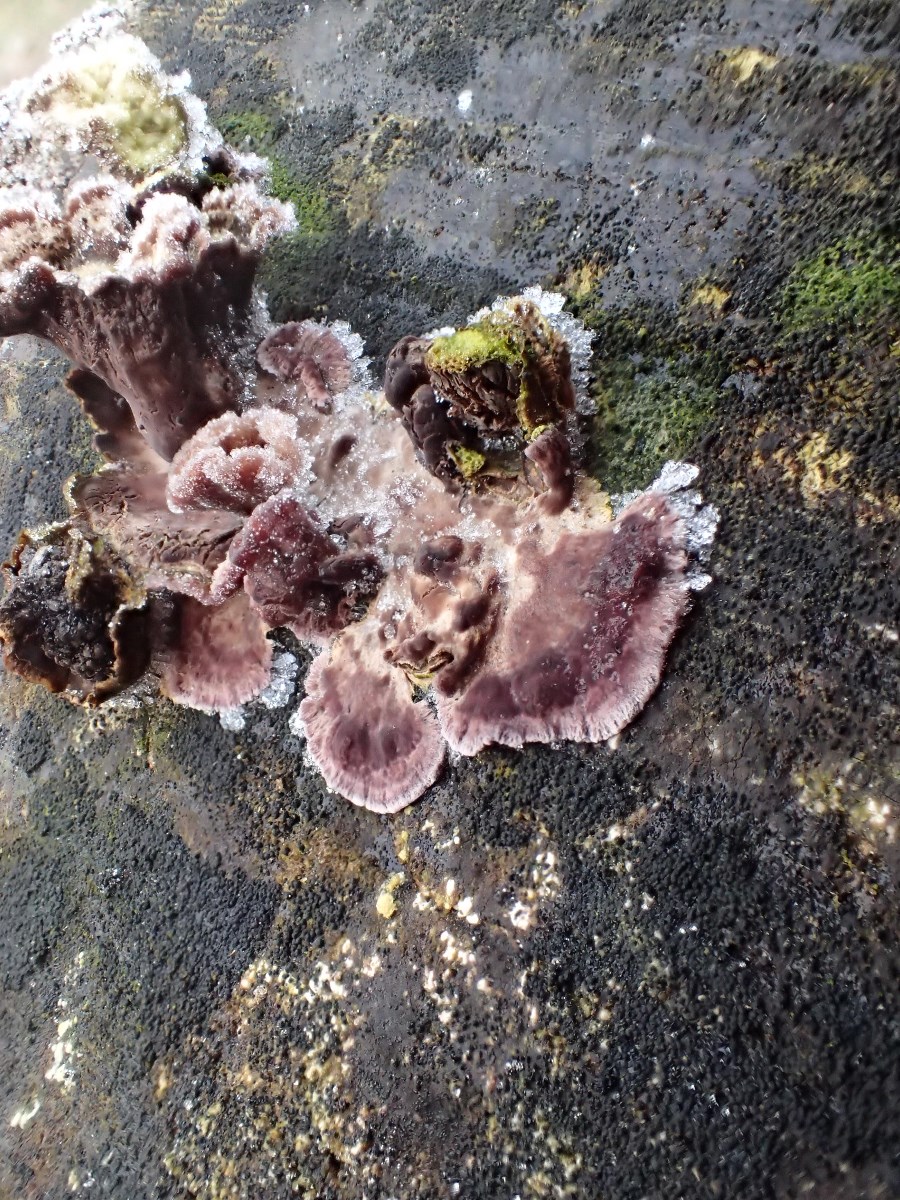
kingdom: Fungi
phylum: Basidiomycota
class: Agaricomycetes
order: Agaricales
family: Cyphellaceae
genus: Chondrostereum
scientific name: Chondrostereum purpureum
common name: purpurlædersvamp
